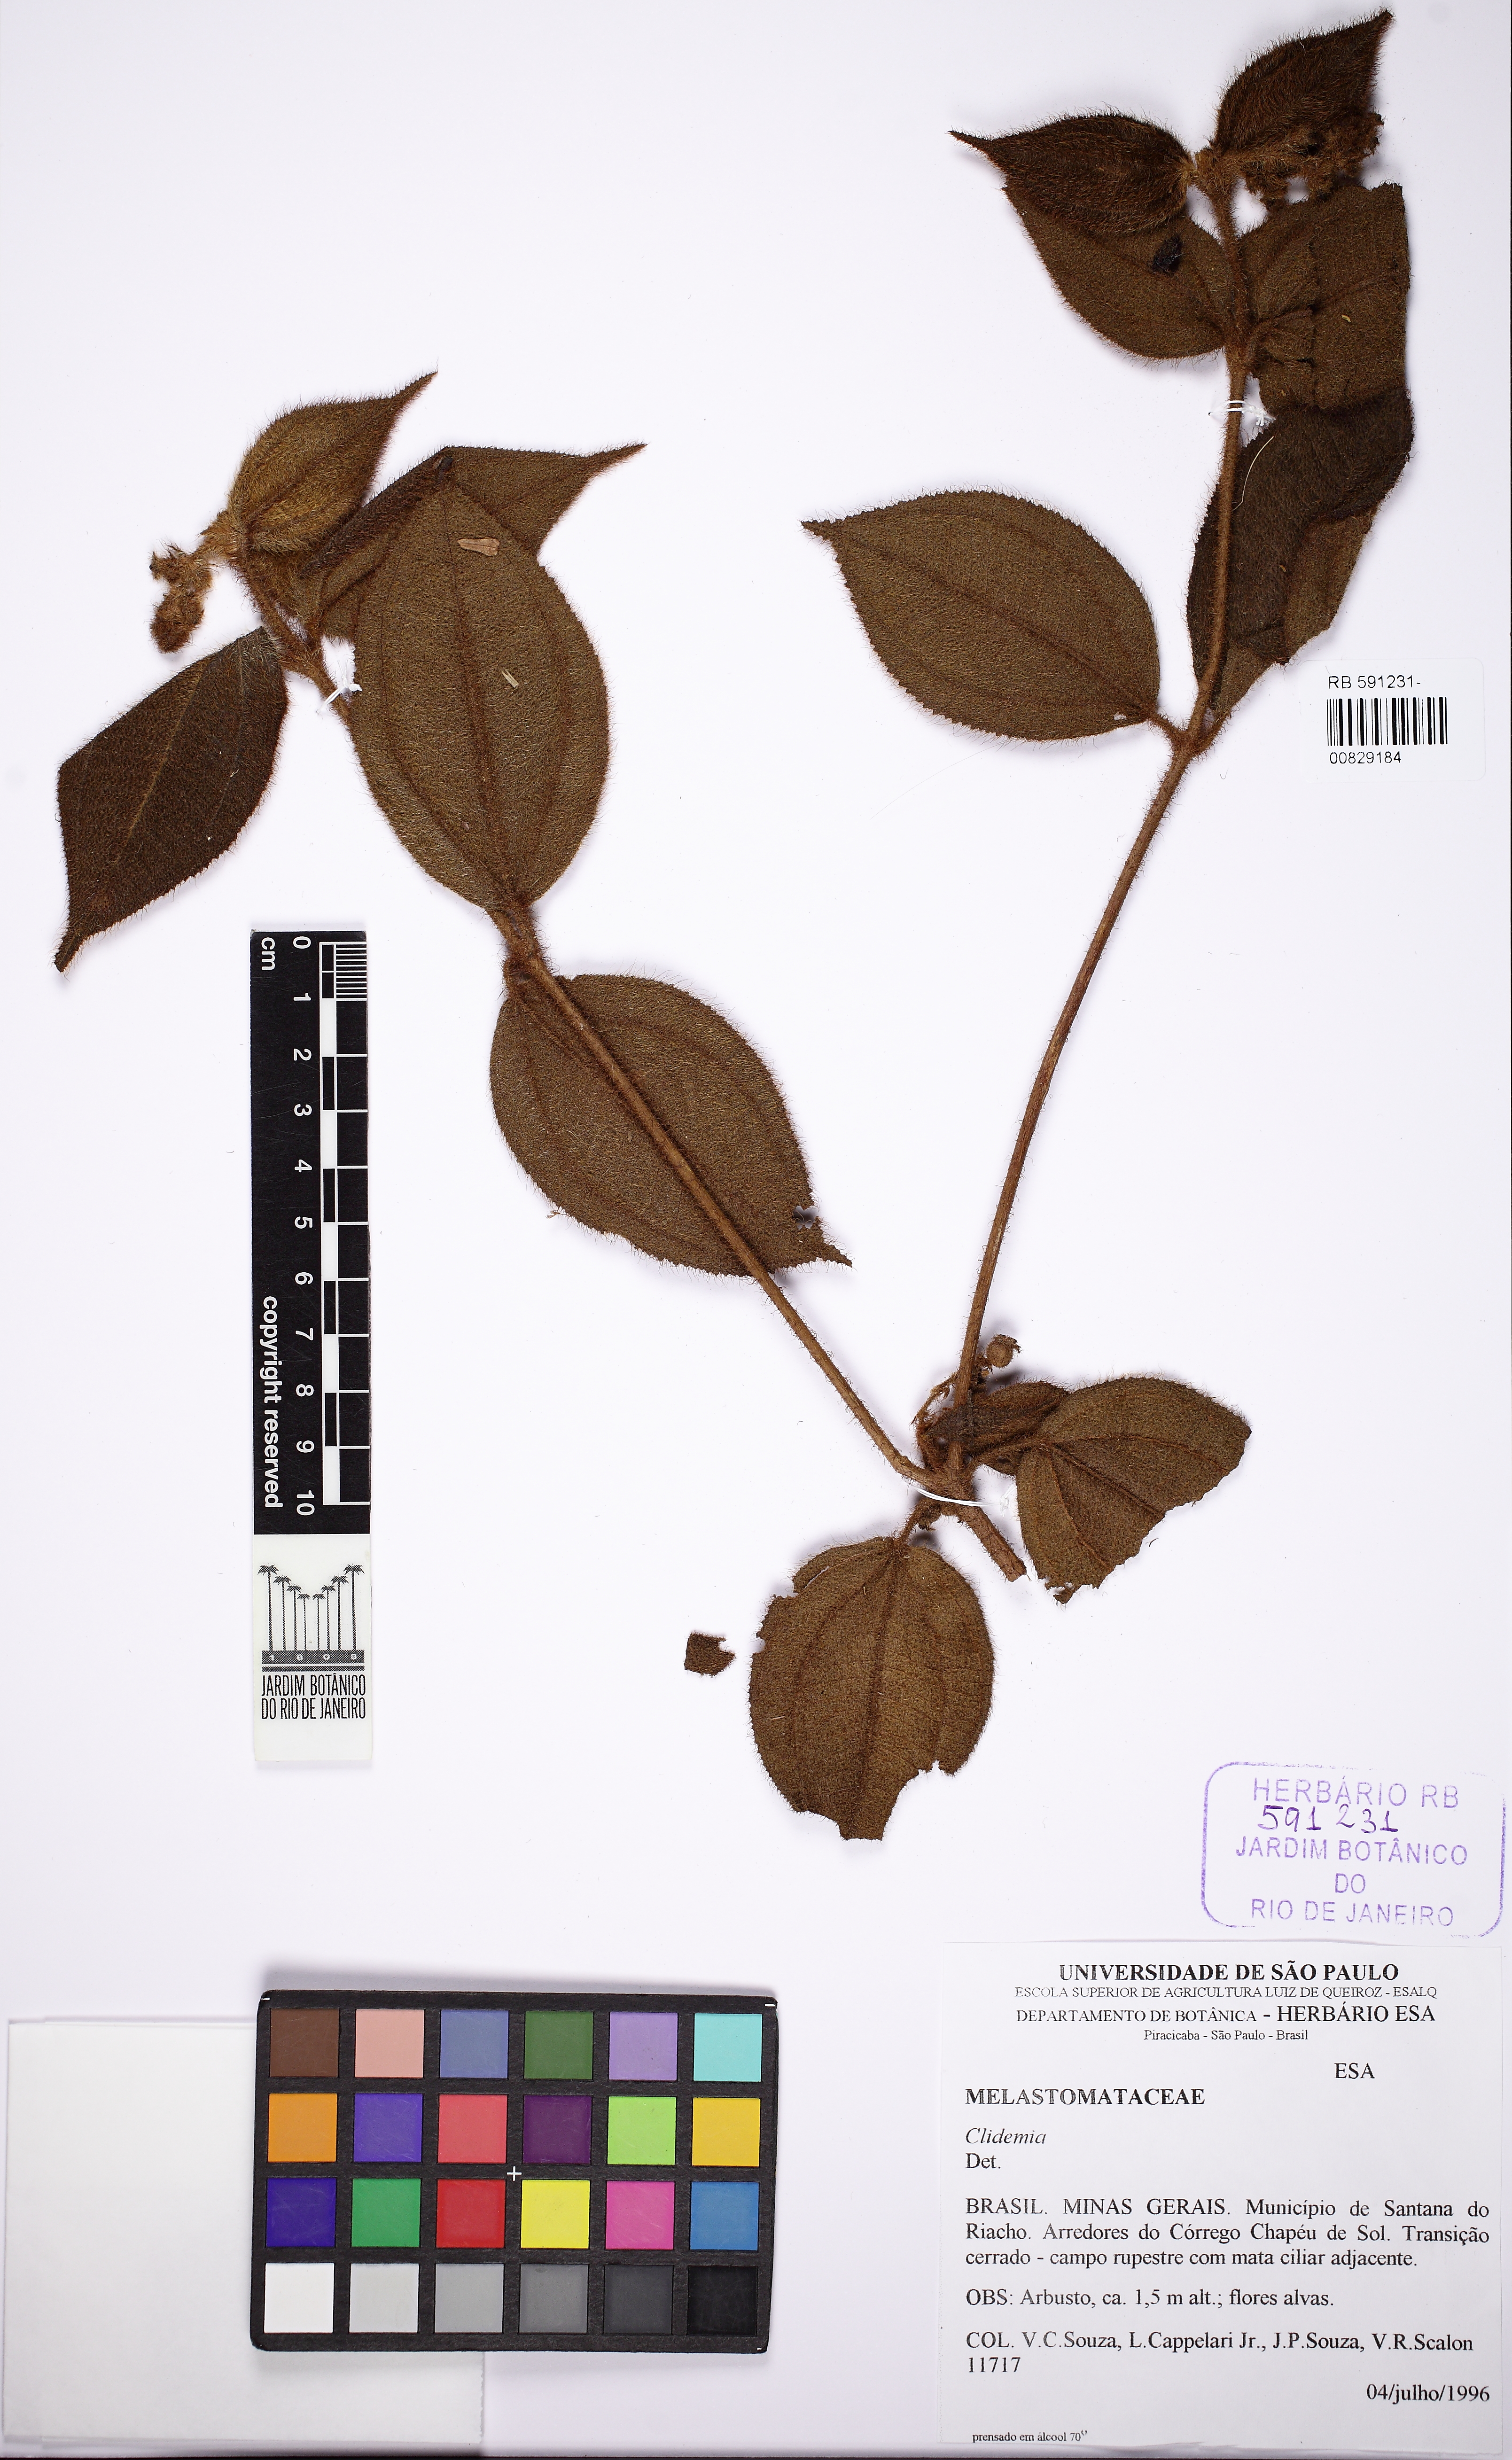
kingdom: Plantae
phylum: Tracheophyta
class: Magnoliopsida
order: Myrtales
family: Melastomataceae
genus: Miconia
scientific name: Miconia dependens
